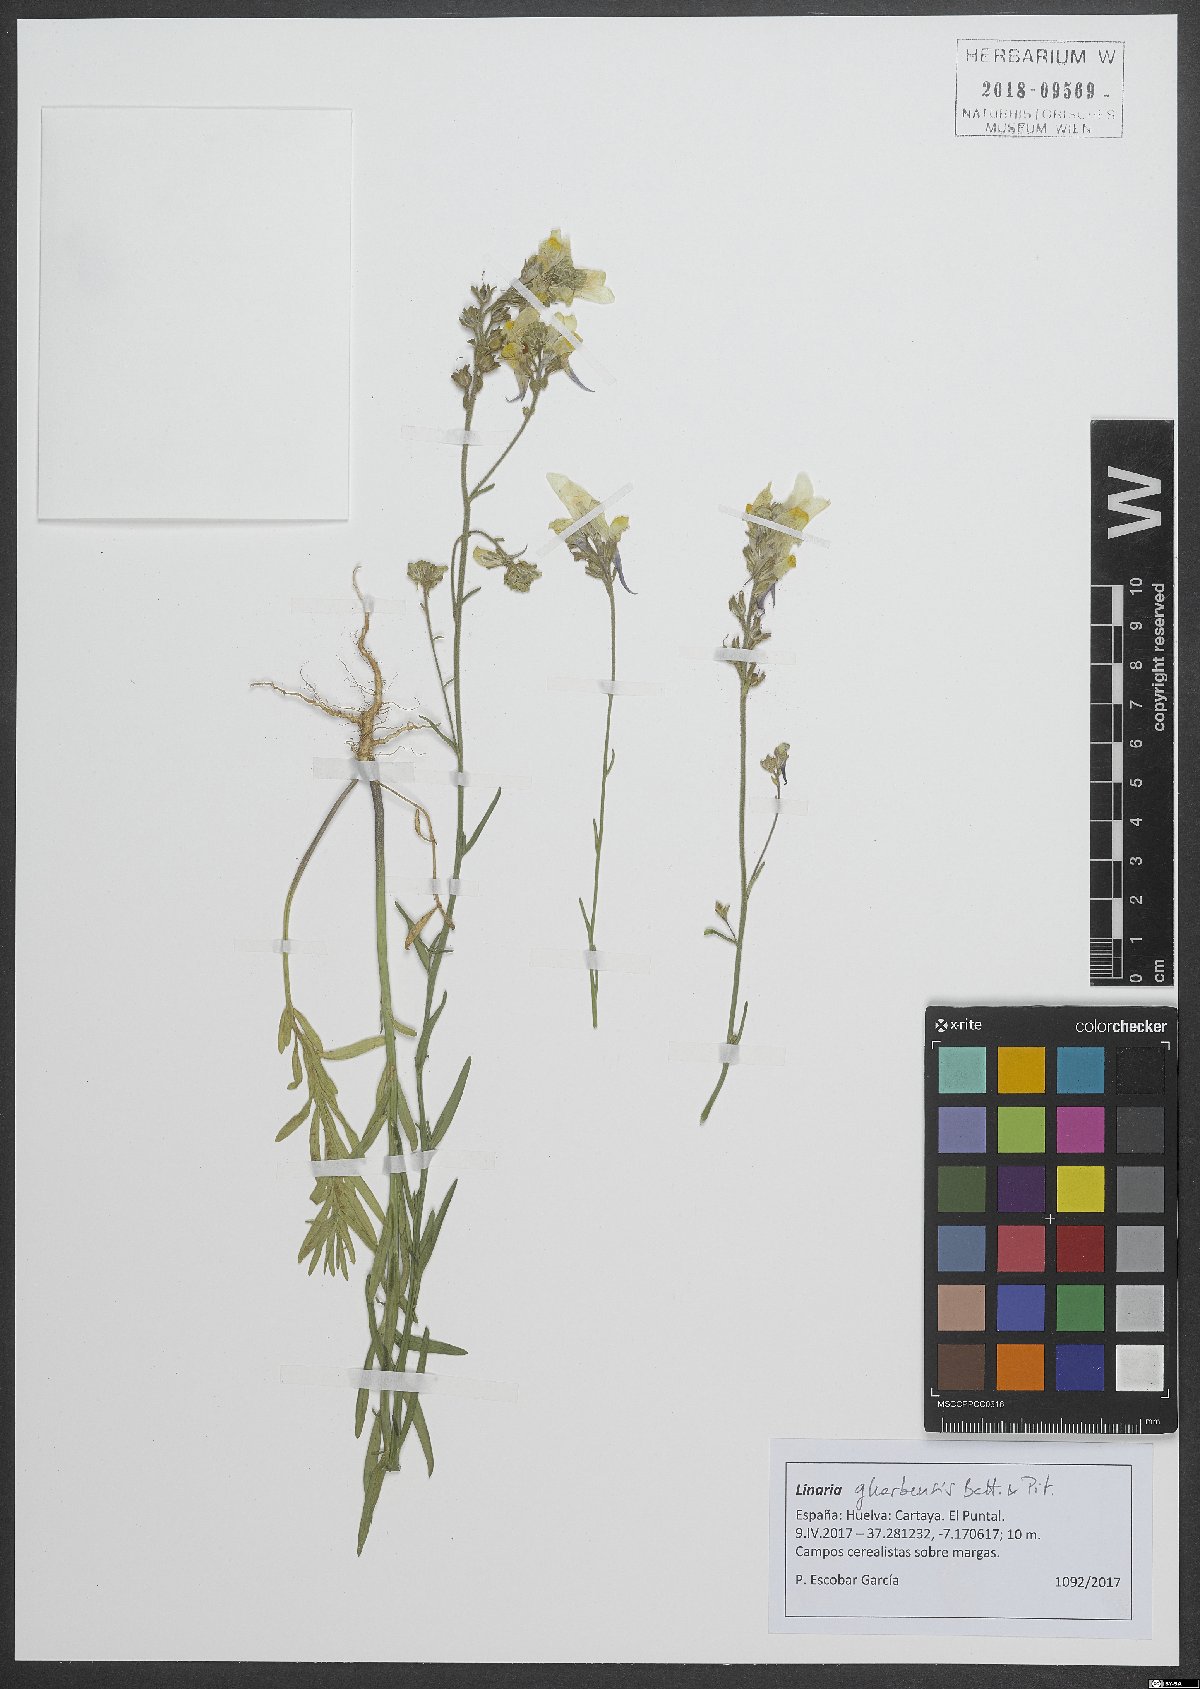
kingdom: Plantae
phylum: Tracheophyta
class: Magnoliopsida
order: Lamiales
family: Plantaginaceae
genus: Linaria
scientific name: Linaria gharbensis
